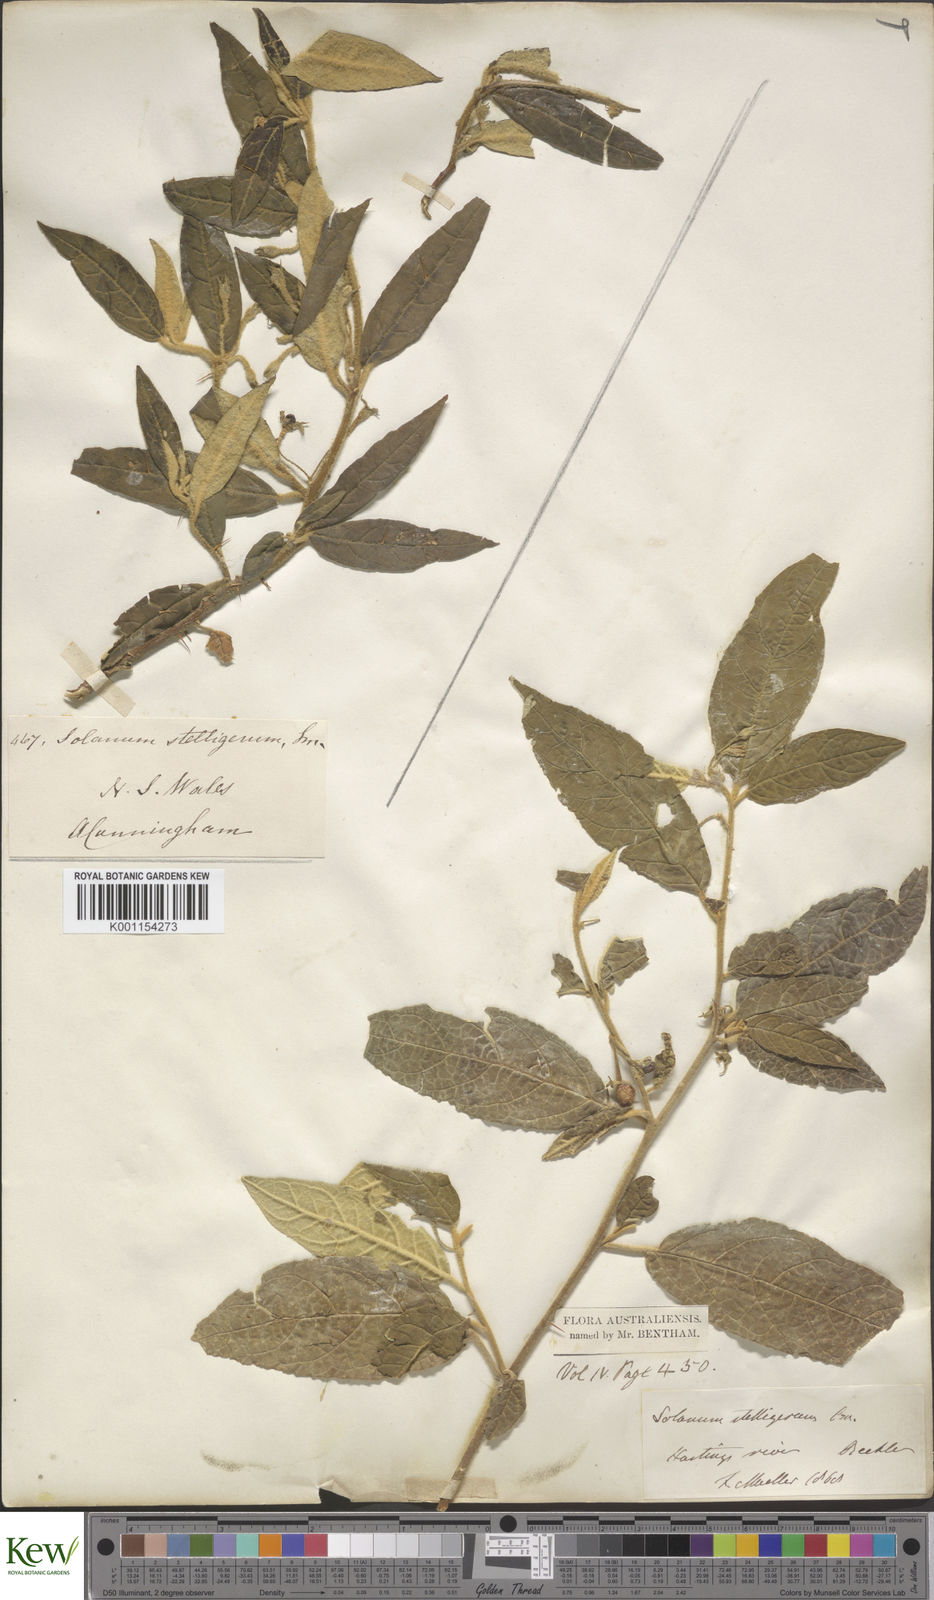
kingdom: Plantae
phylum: Tracheophyta
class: Magnoliopsida
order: Solanales
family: Solanaceae
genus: Solanum
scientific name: Solanum stelligerum
